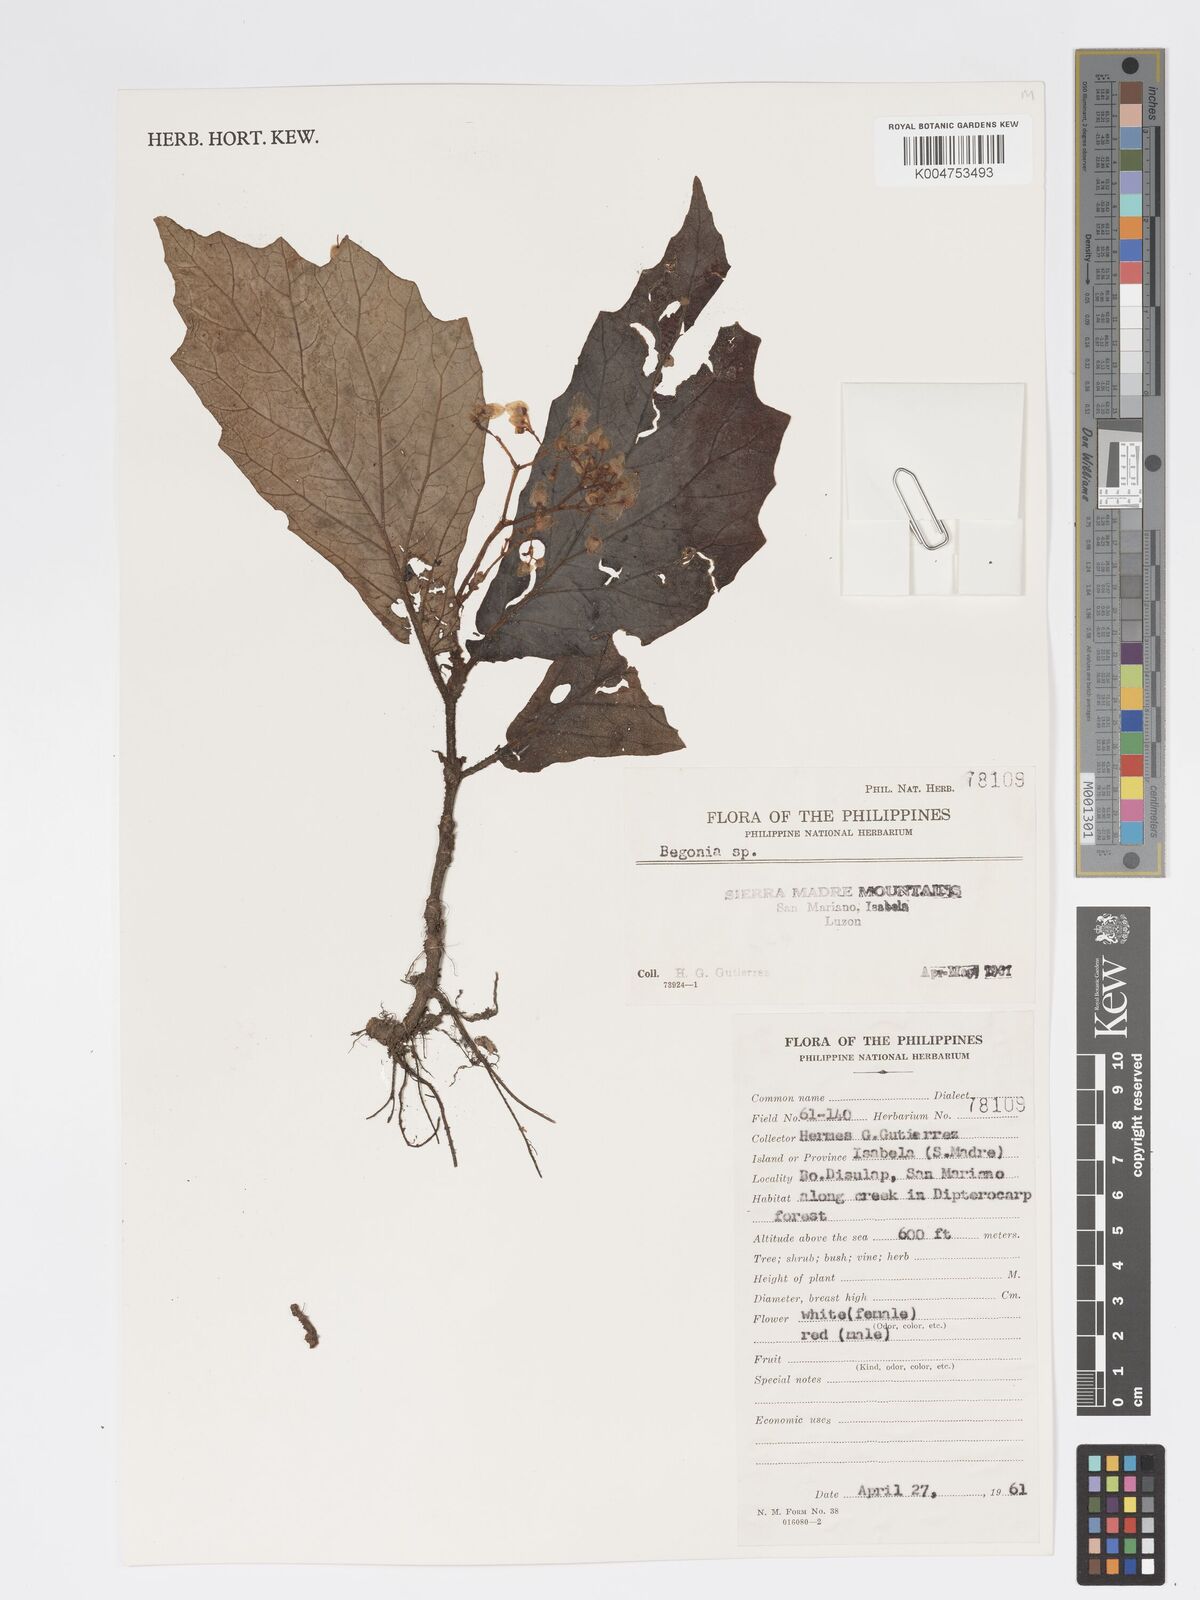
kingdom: Plantae
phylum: Tracheophyta
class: Magnoliopsida
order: Cucurbitales
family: Begoniaceae
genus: Begonia
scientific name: Begonia
